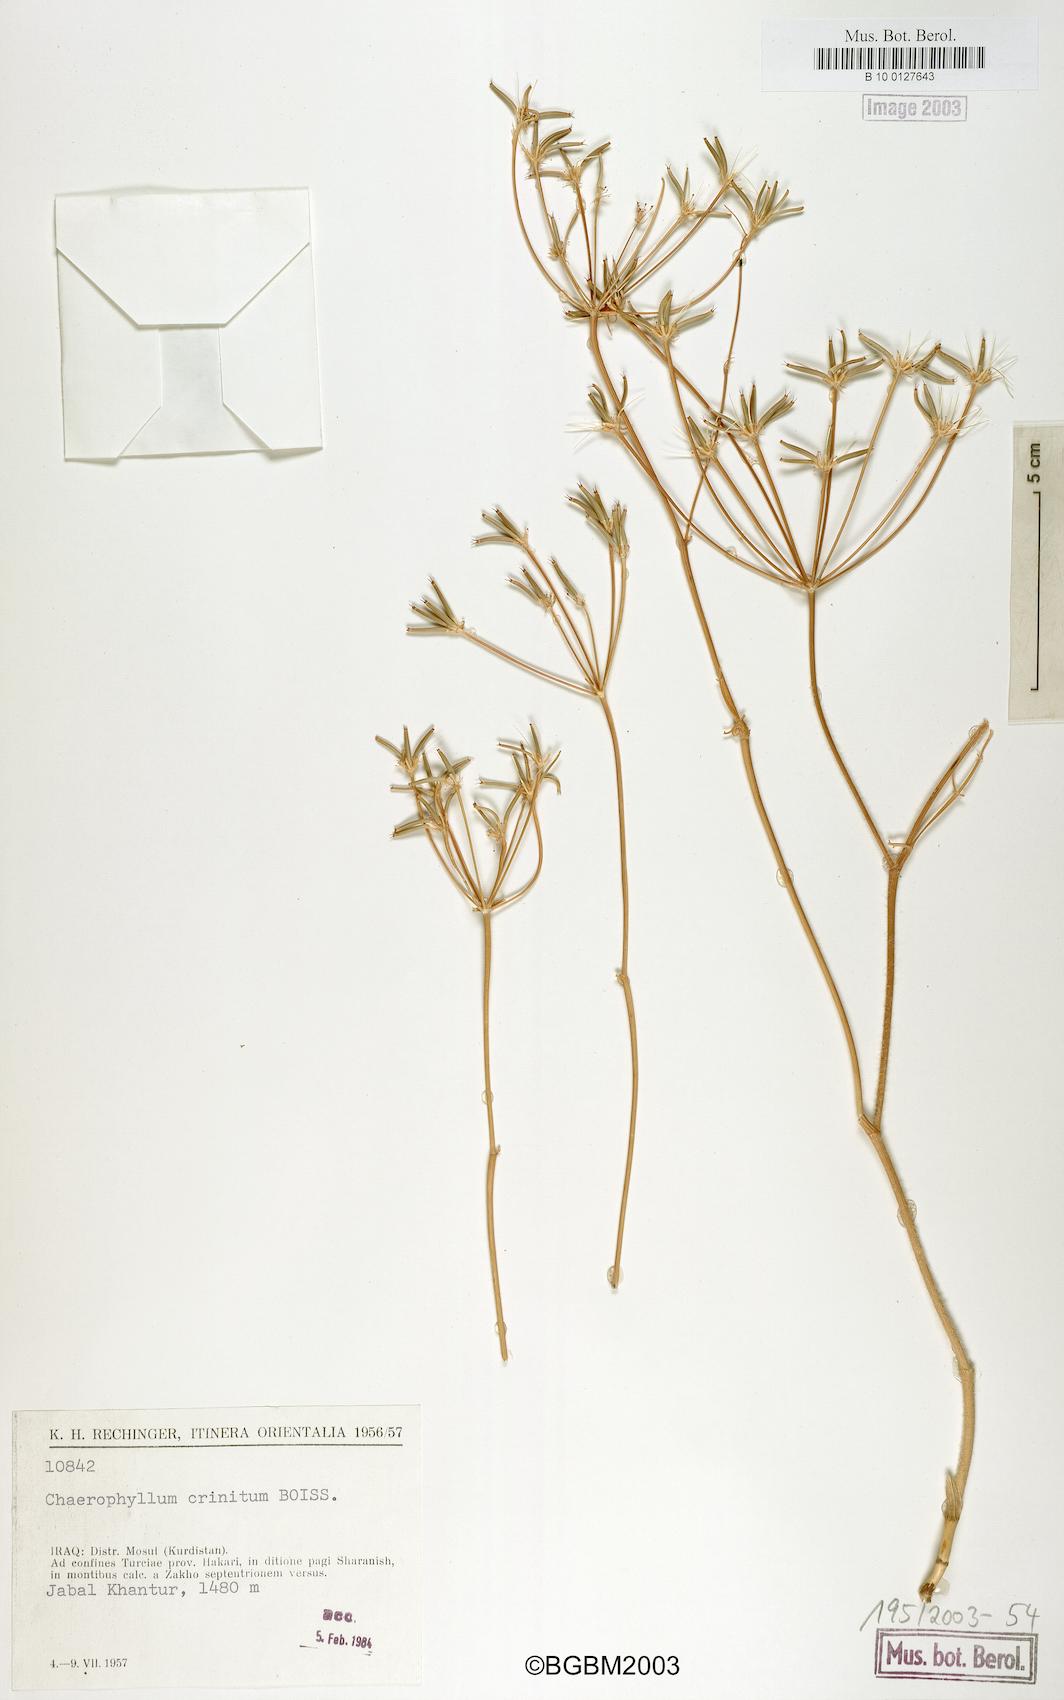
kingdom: Plantae
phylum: Tracheophyta
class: Magnoliopsida
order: Apiales
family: Apiaceae
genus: Chaerophyllum
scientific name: Chaerophyllum crinitum
